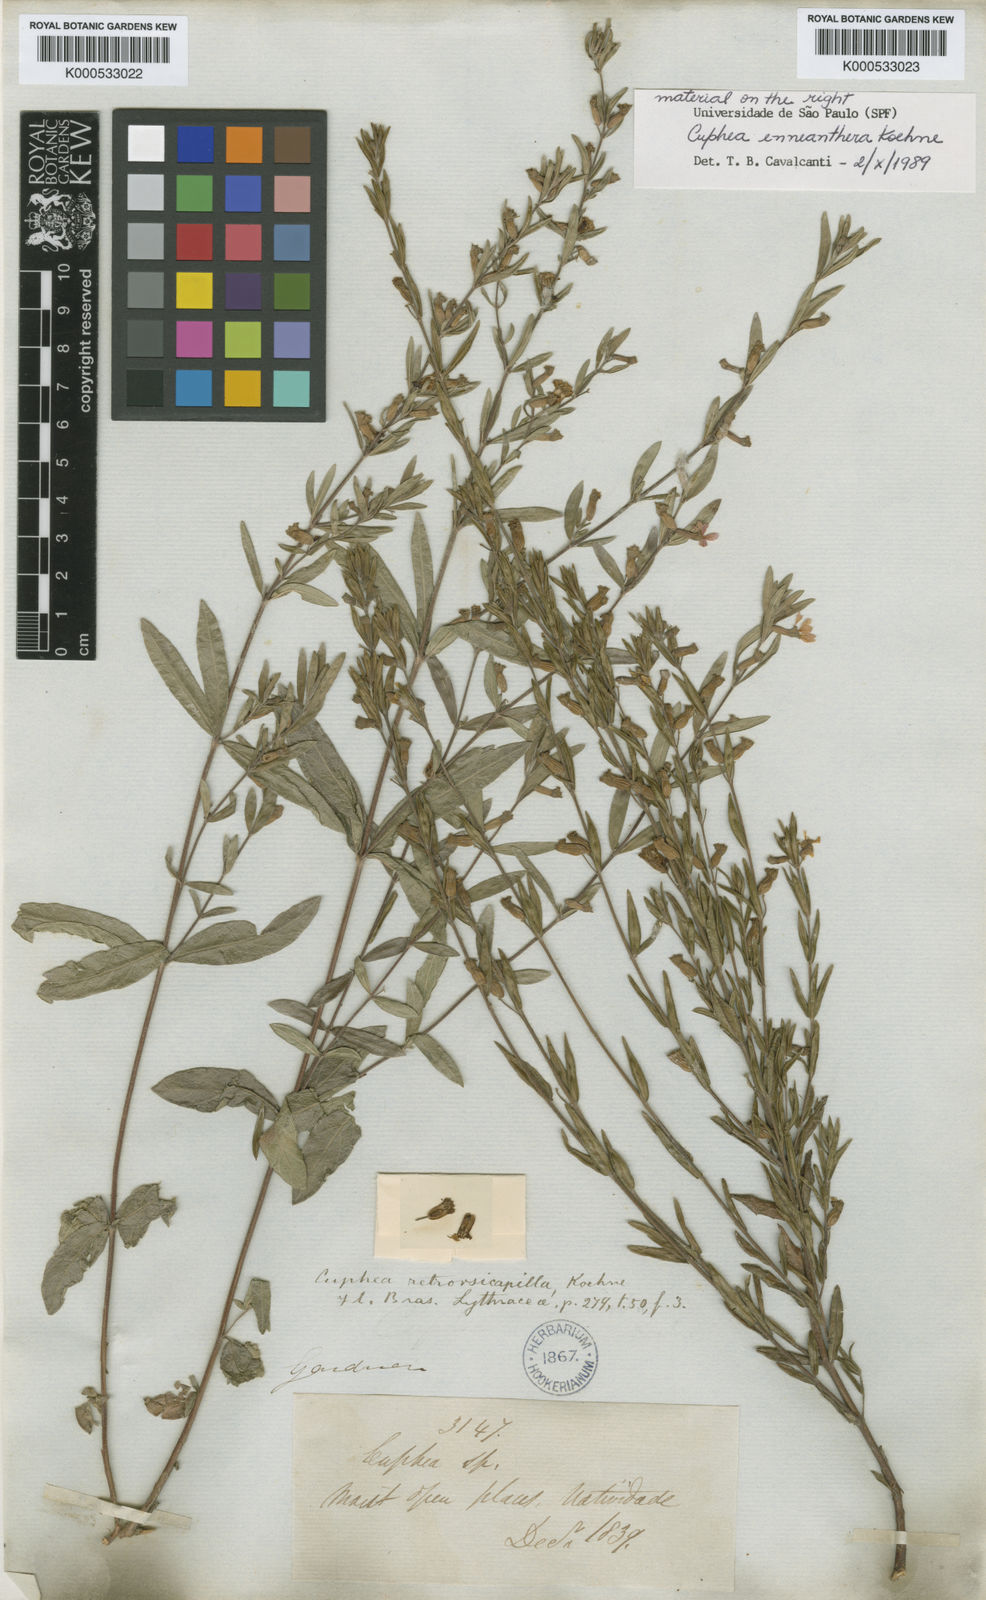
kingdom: Plantae
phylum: Tracheophyta
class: Magnoliopsida
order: Myrtales
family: Lythraceae
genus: Cuphea
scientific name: Cuphea retrorsicapilla
